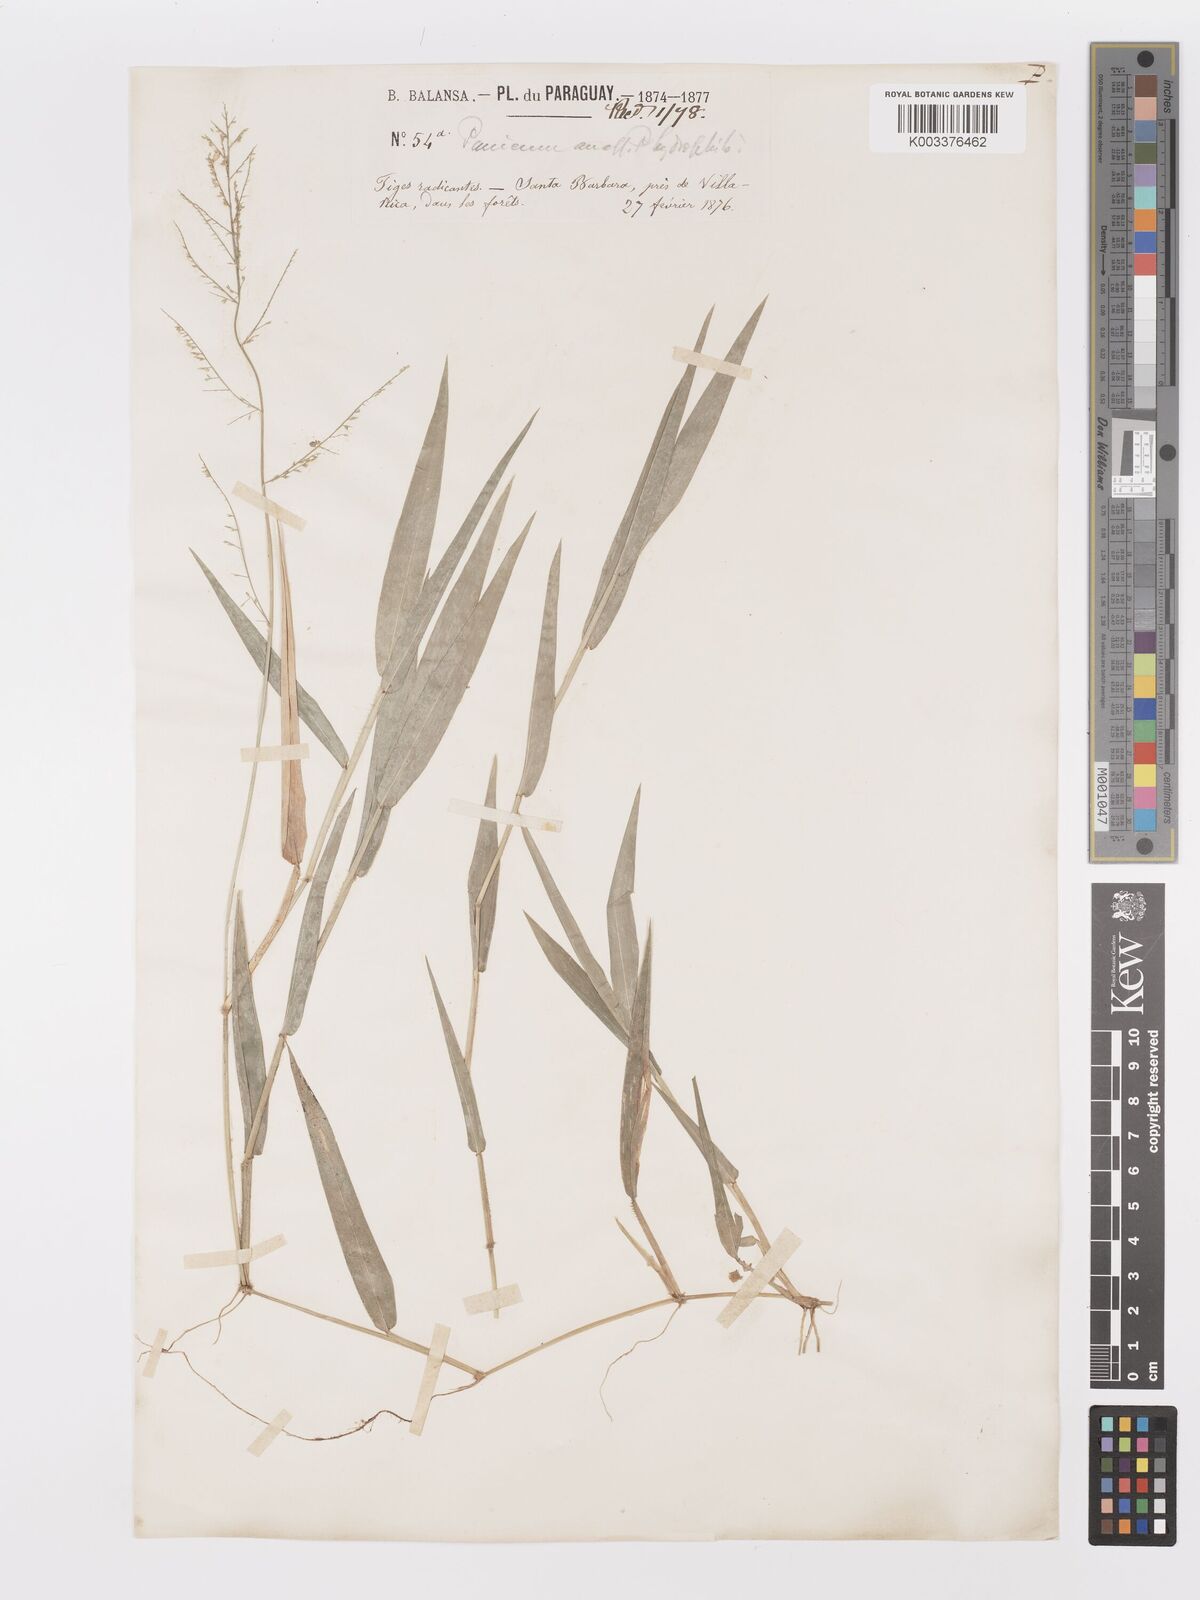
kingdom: Plantae
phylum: Tracheophyta
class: Liliopsida
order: Poales
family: Poaceae
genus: Rugoloa
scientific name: Rugoloa polygonata
